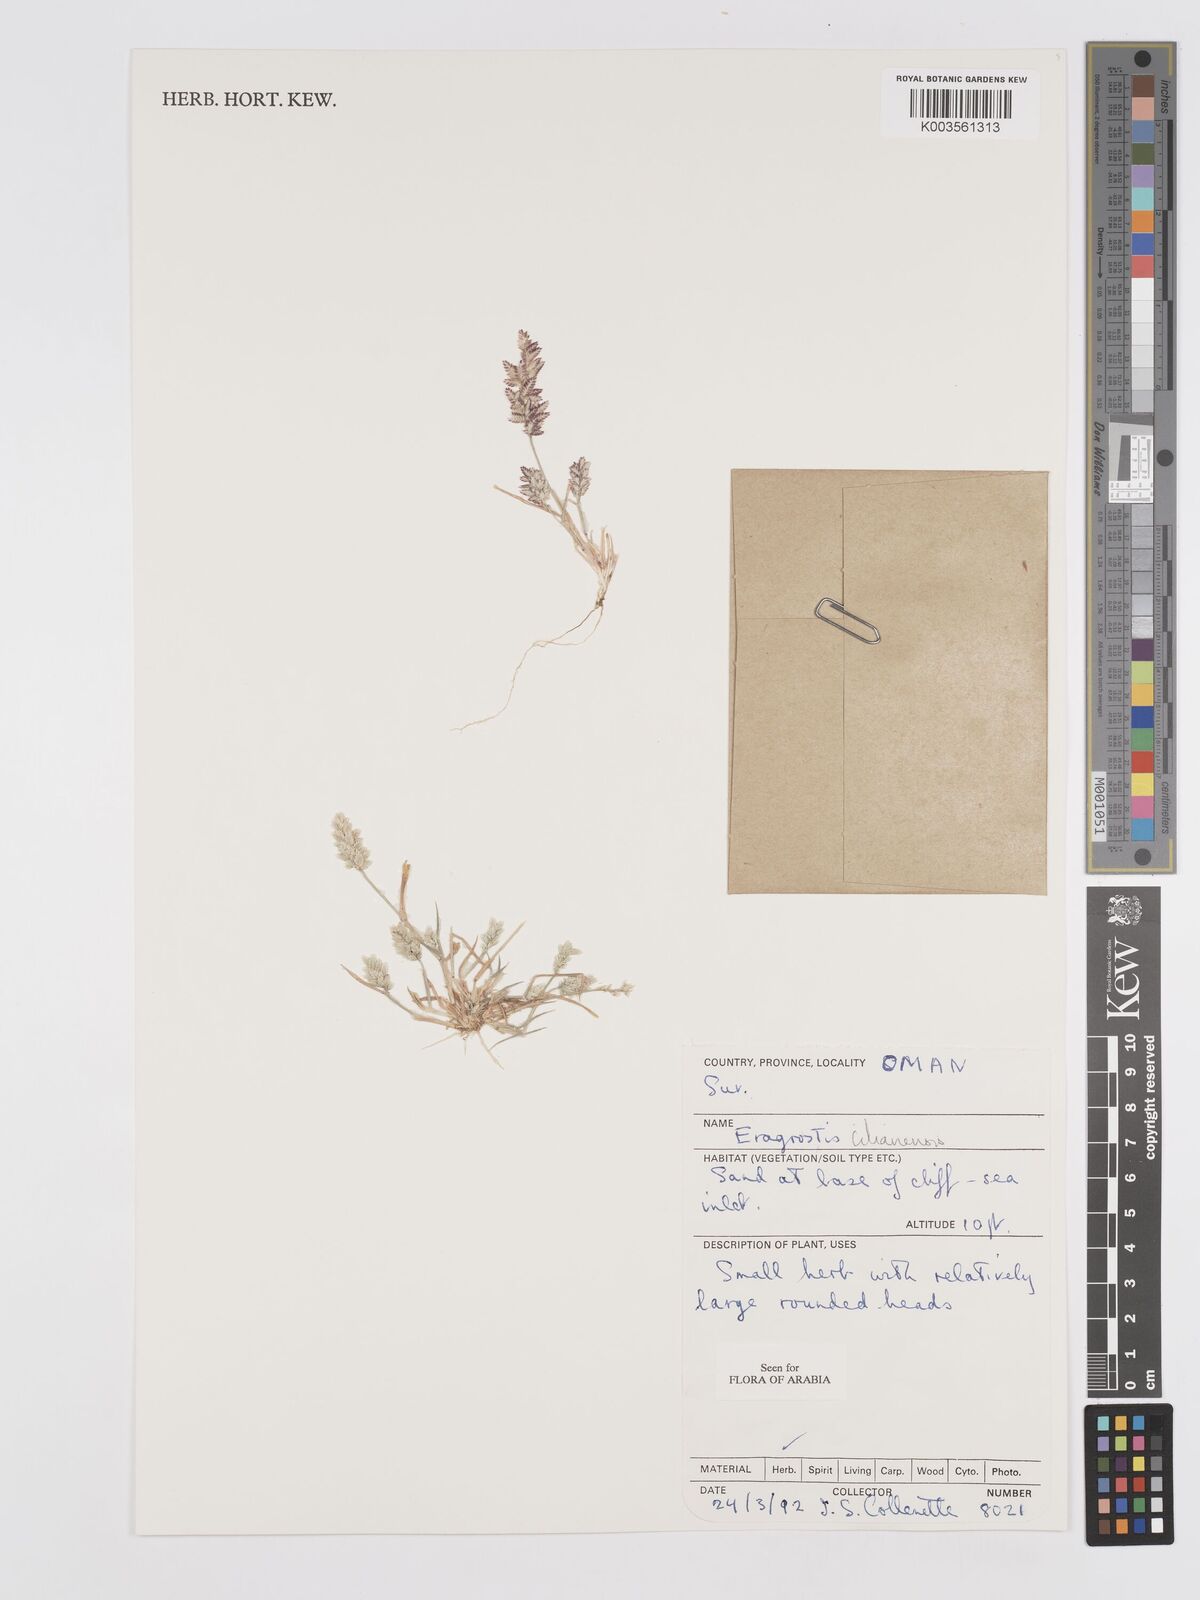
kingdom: Plantae
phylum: Tracheophyta
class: Liliopsida
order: Poales
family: Poaceae
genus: Eragrostis
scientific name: Eragrostis cilianensis
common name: Stinkgrass
